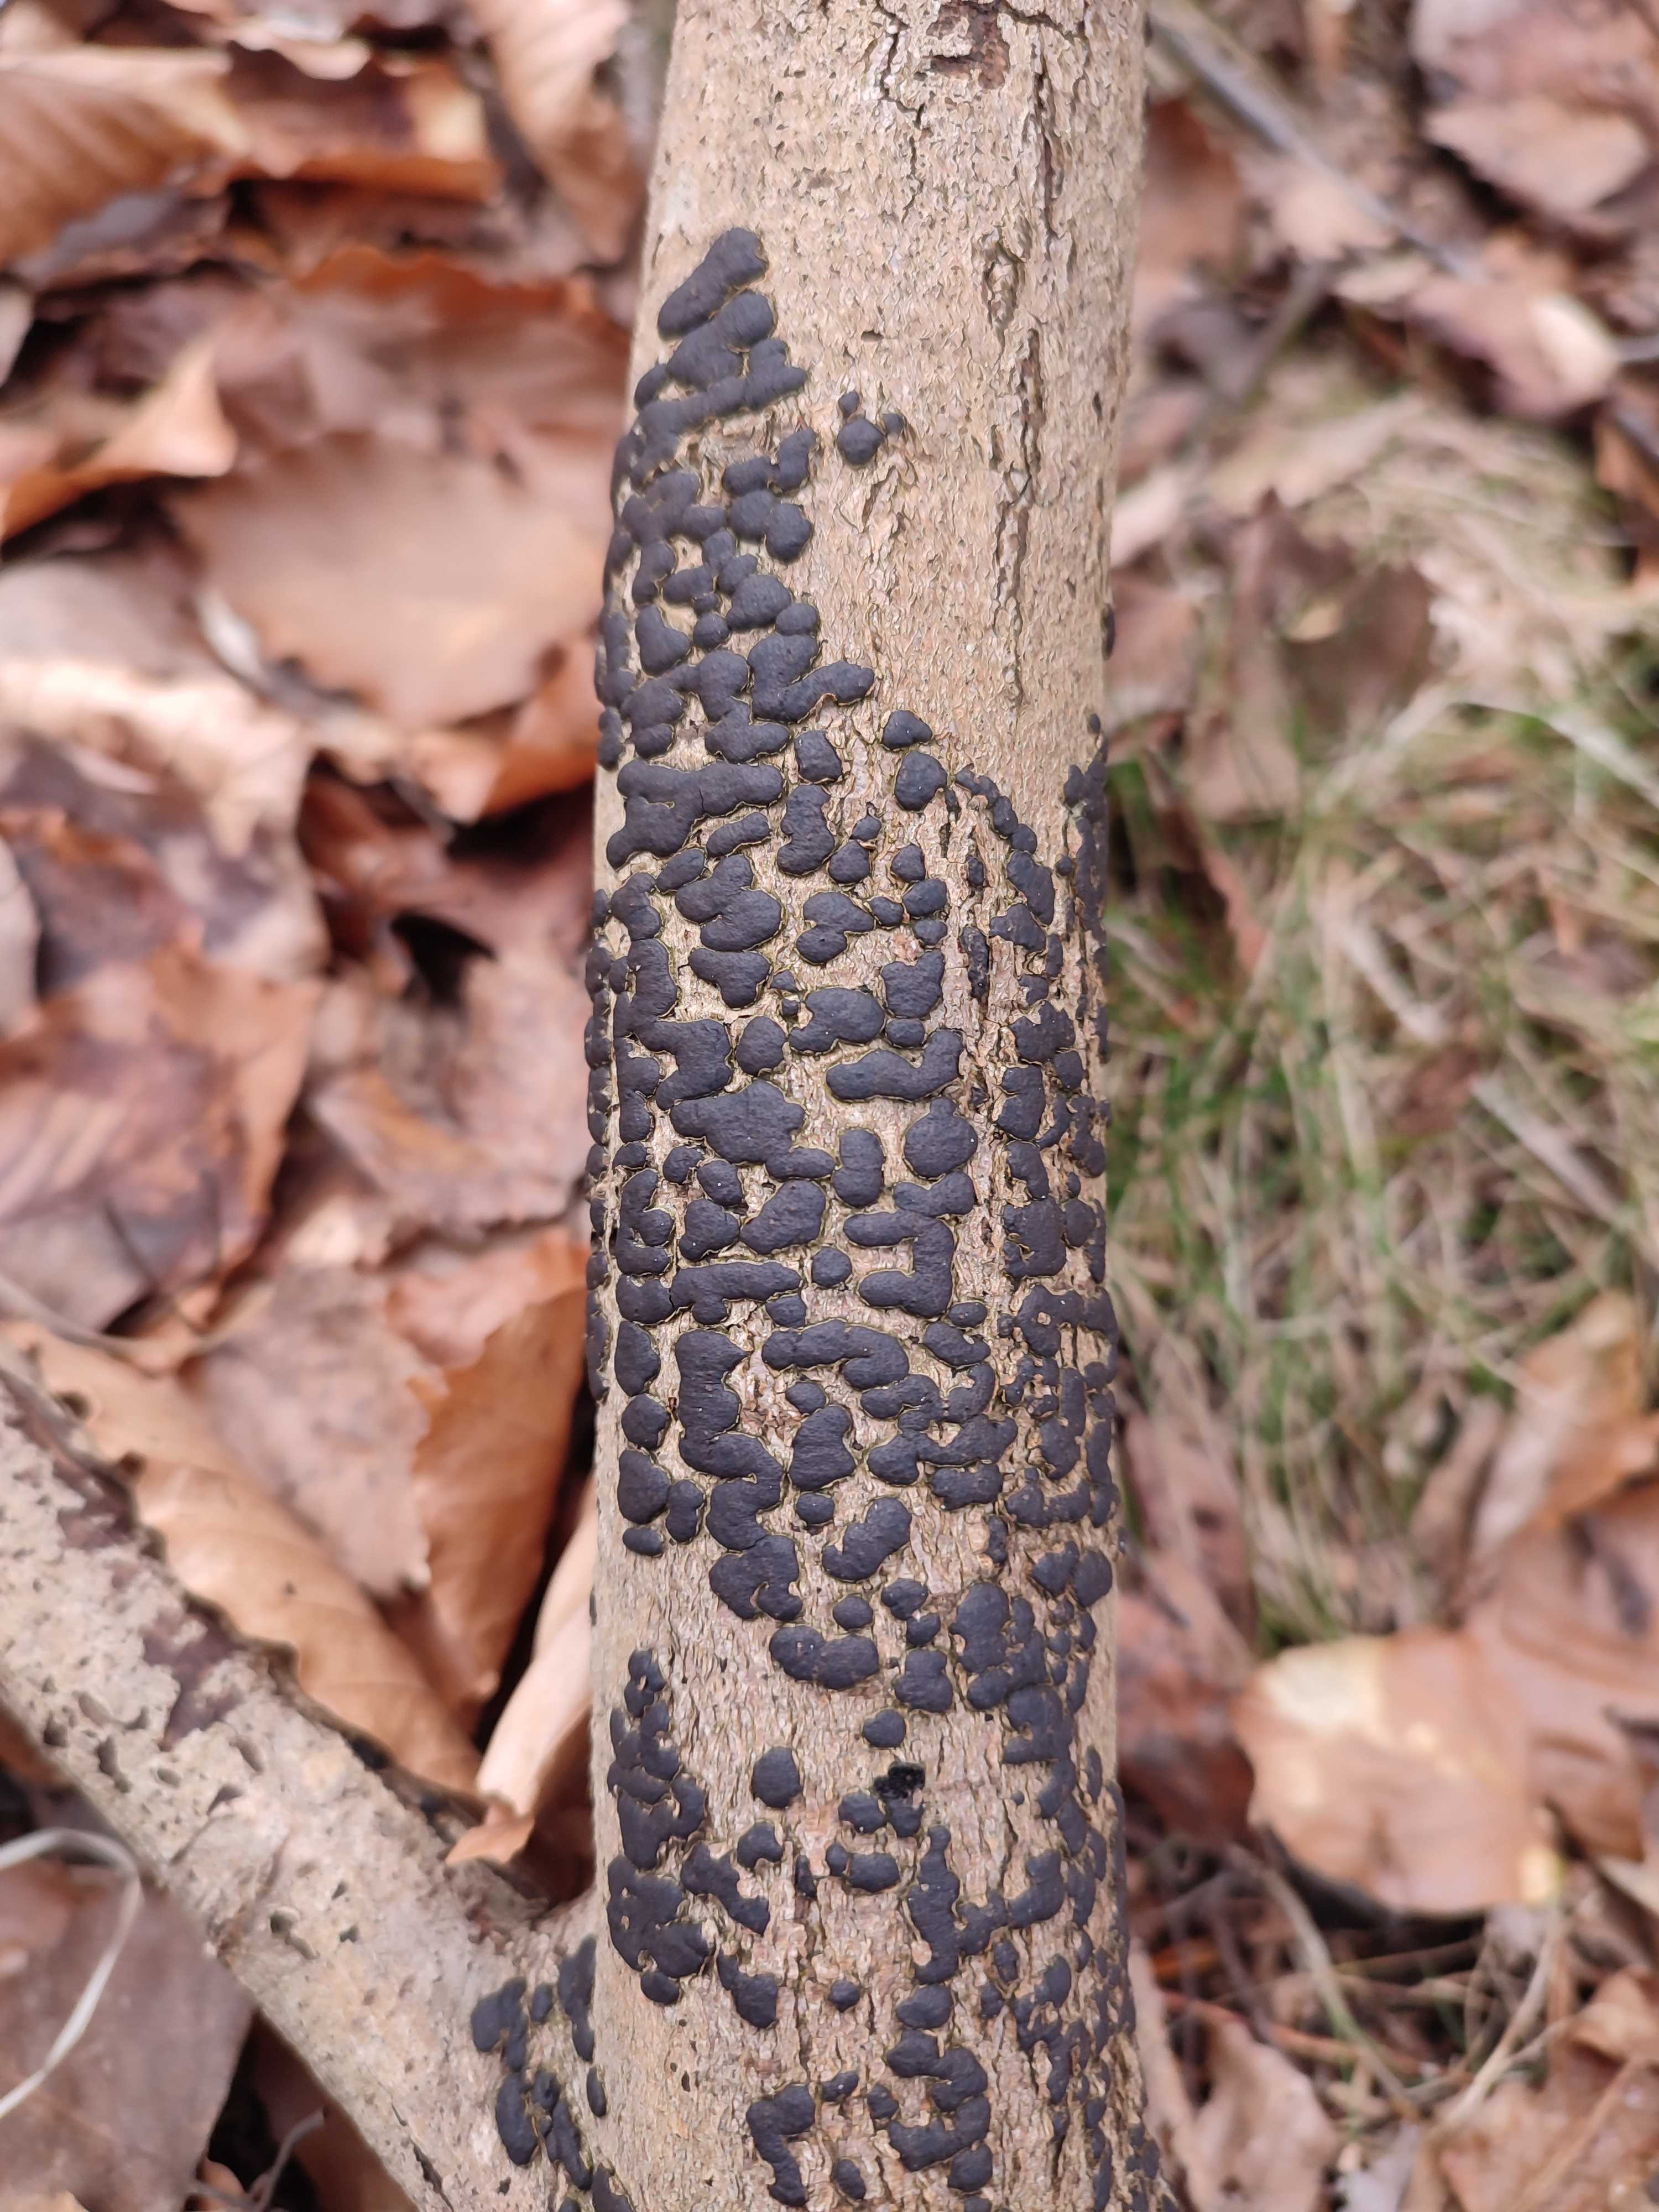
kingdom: Fungi
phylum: Ascomycota
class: Sordariomycetes
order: Xylariales
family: Diatrypaceae
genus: Diatrype
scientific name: Diatrype bullata
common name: pile-kulskorpe
